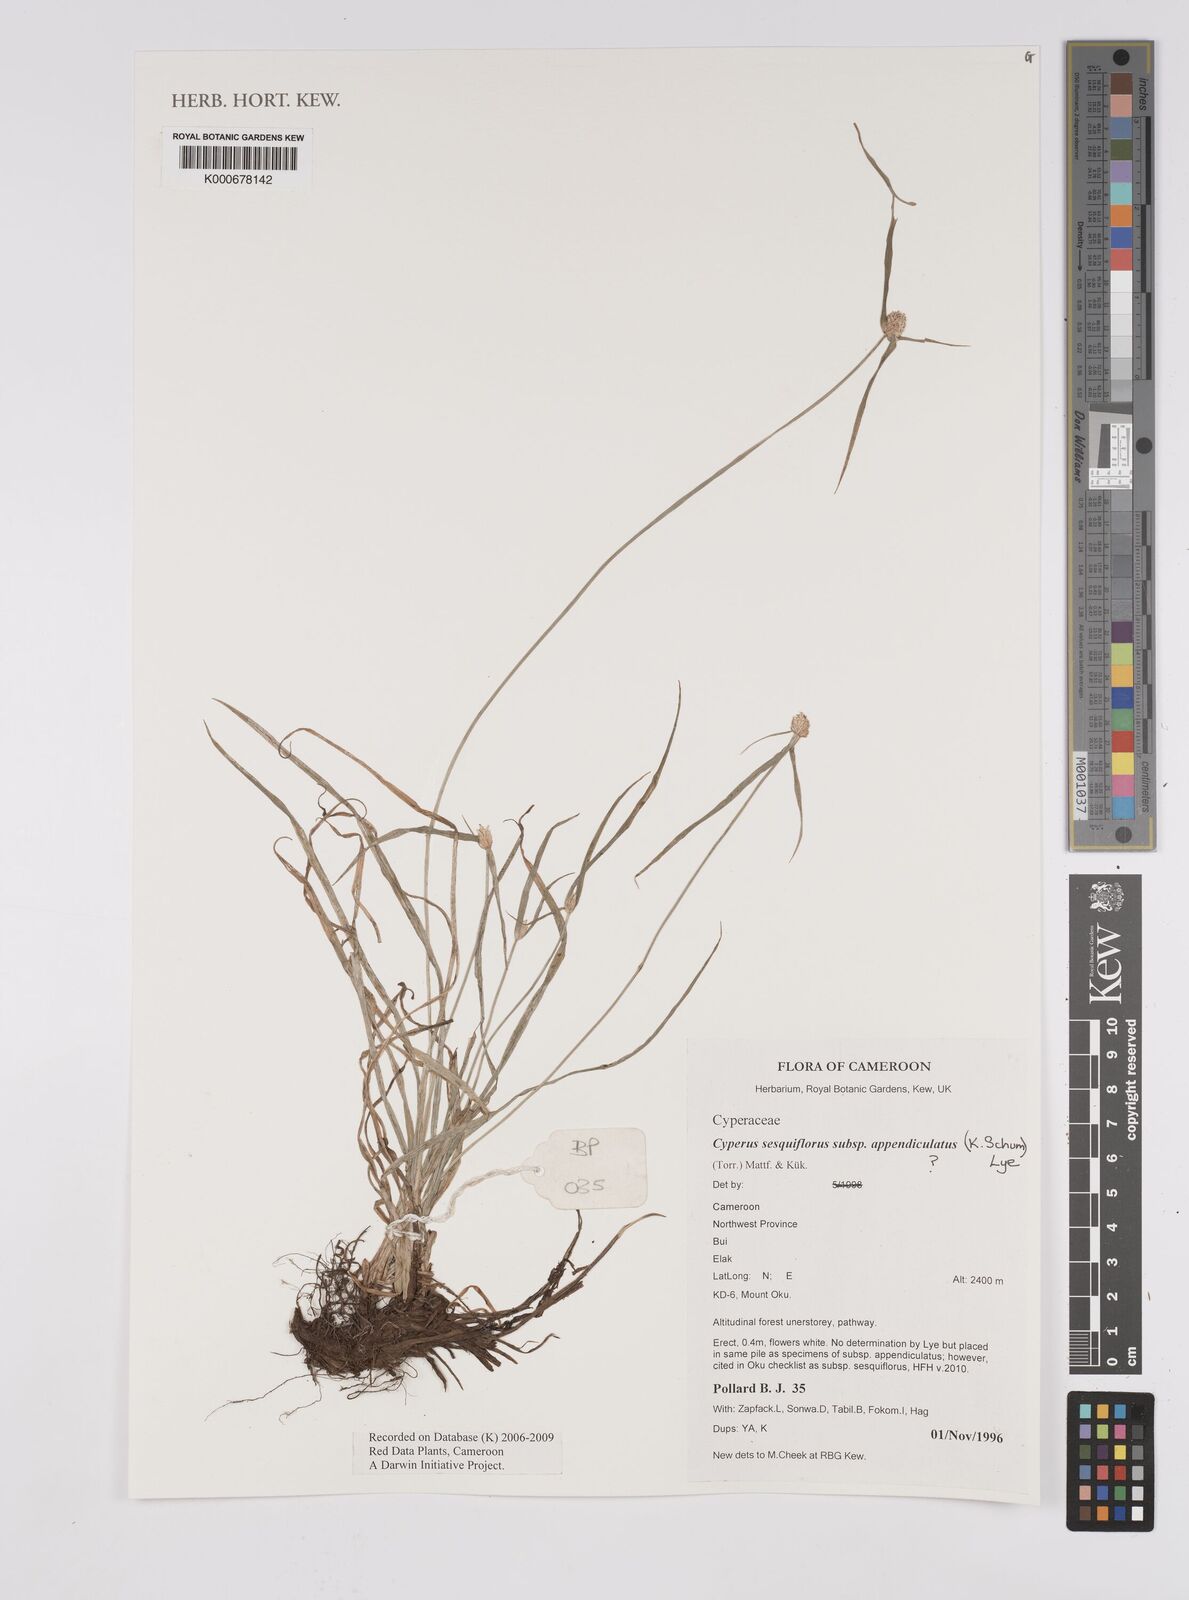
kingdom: Plantae
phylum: Tracheophyta
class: Liliopsida
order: Poales
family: Cyperaceae
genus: Cyperus
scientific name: Cyperus sesquiflorus
